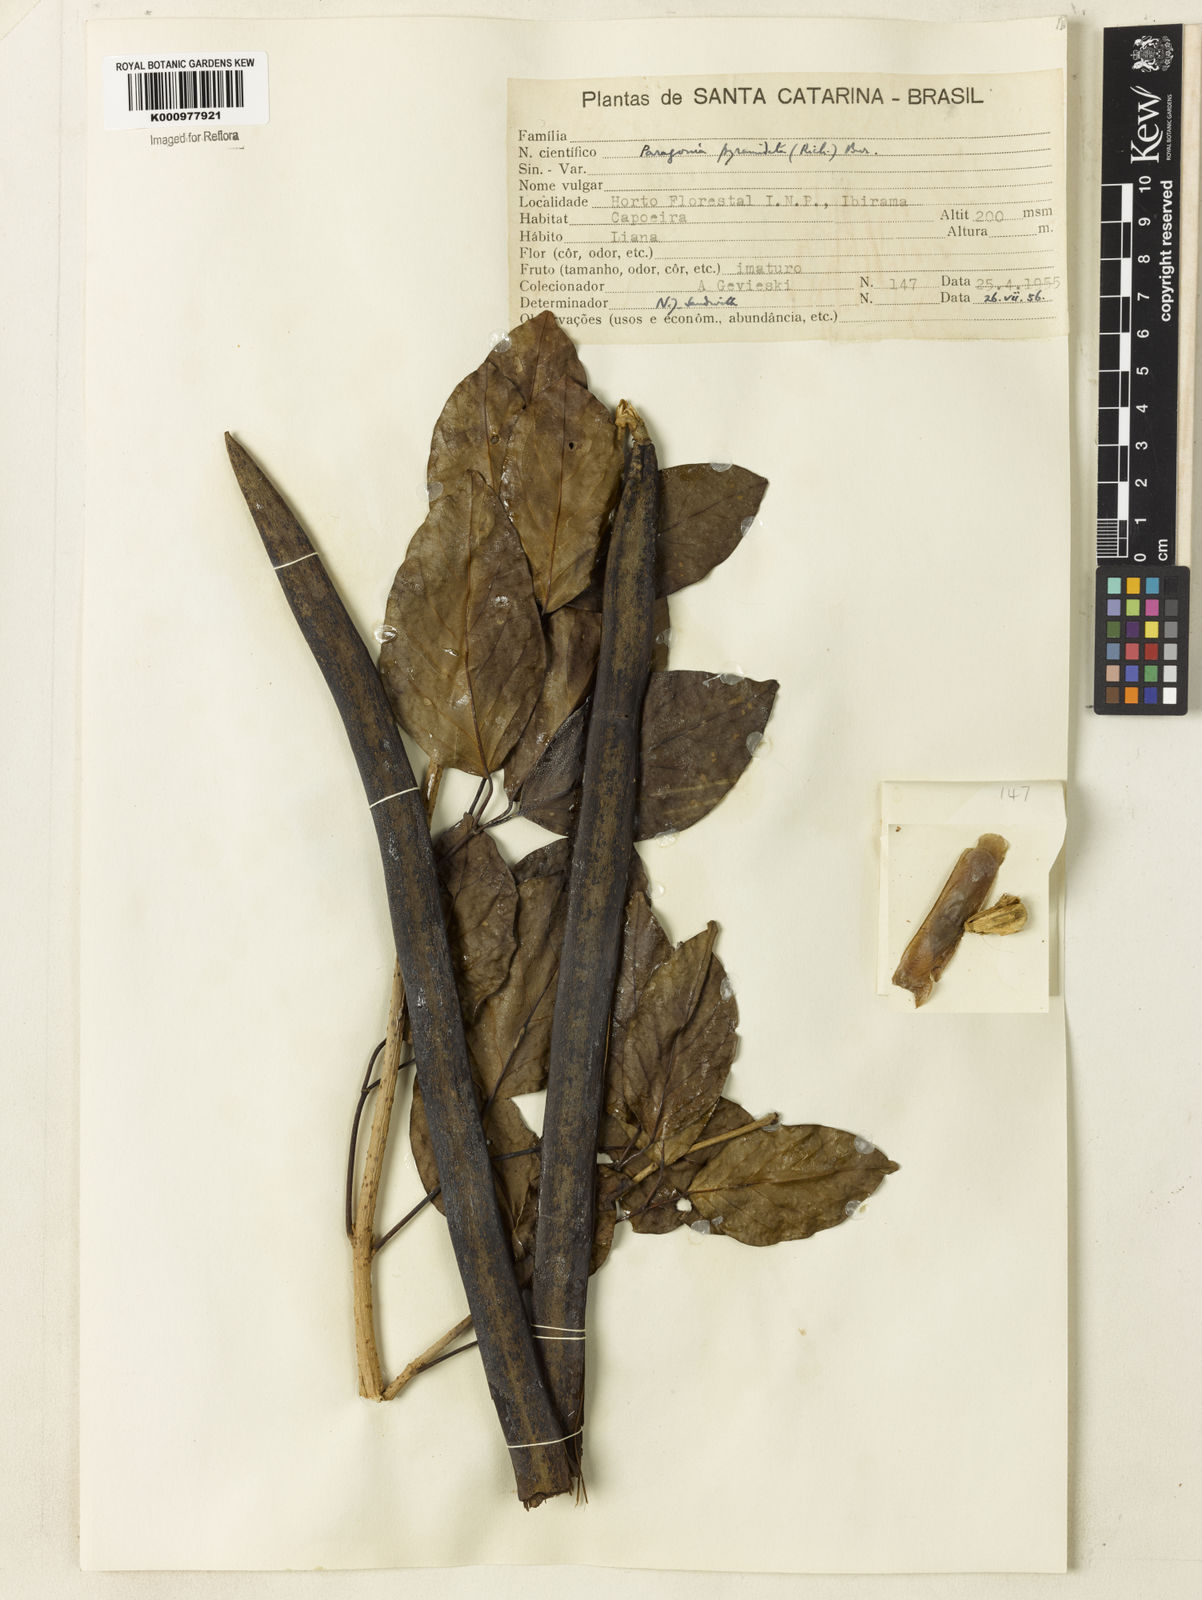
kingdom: Plantae
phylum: Tracheophyta
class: Magnoliopsida
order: Lamiales
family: Bignoniaceae
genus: Tanaecium
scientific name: Tanaecium pyramidatum
